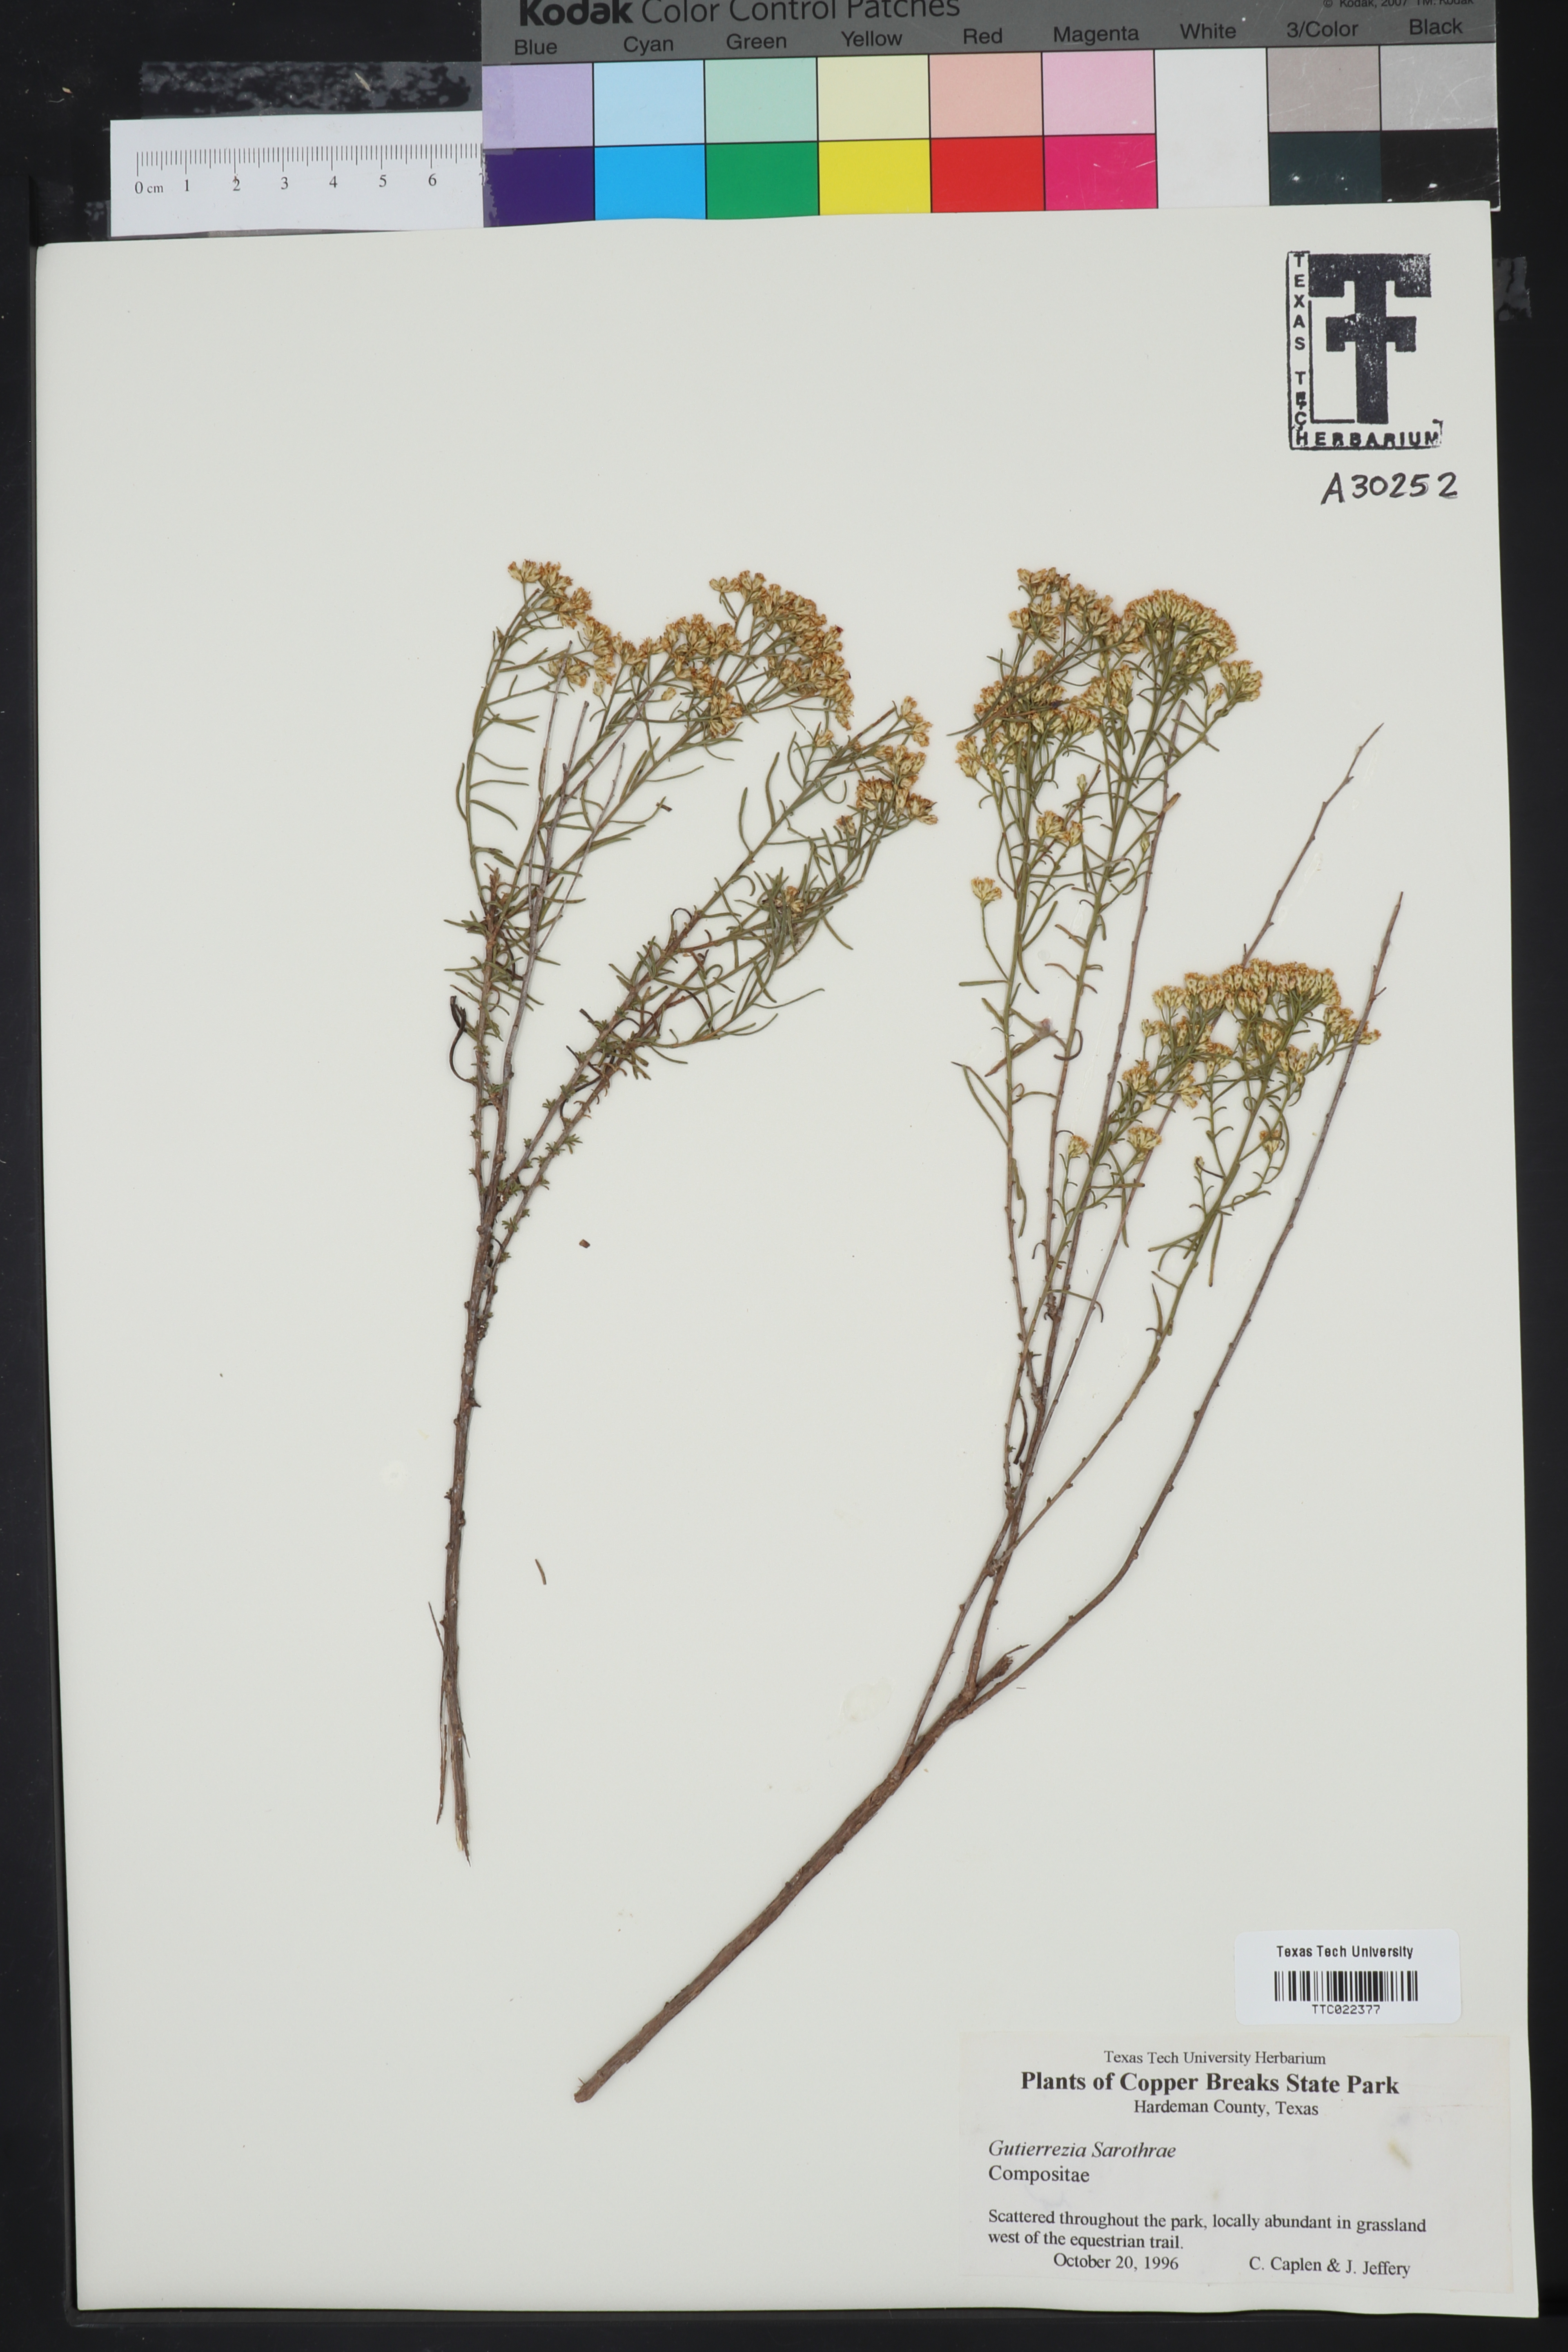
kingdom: Plantae
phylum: Tracheophyta
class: Magnoliopsida
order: Asterales
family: Asteraceae
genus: Gutierrezia
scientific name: Gutierrezia sarothrae
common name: Broom snakeweed
